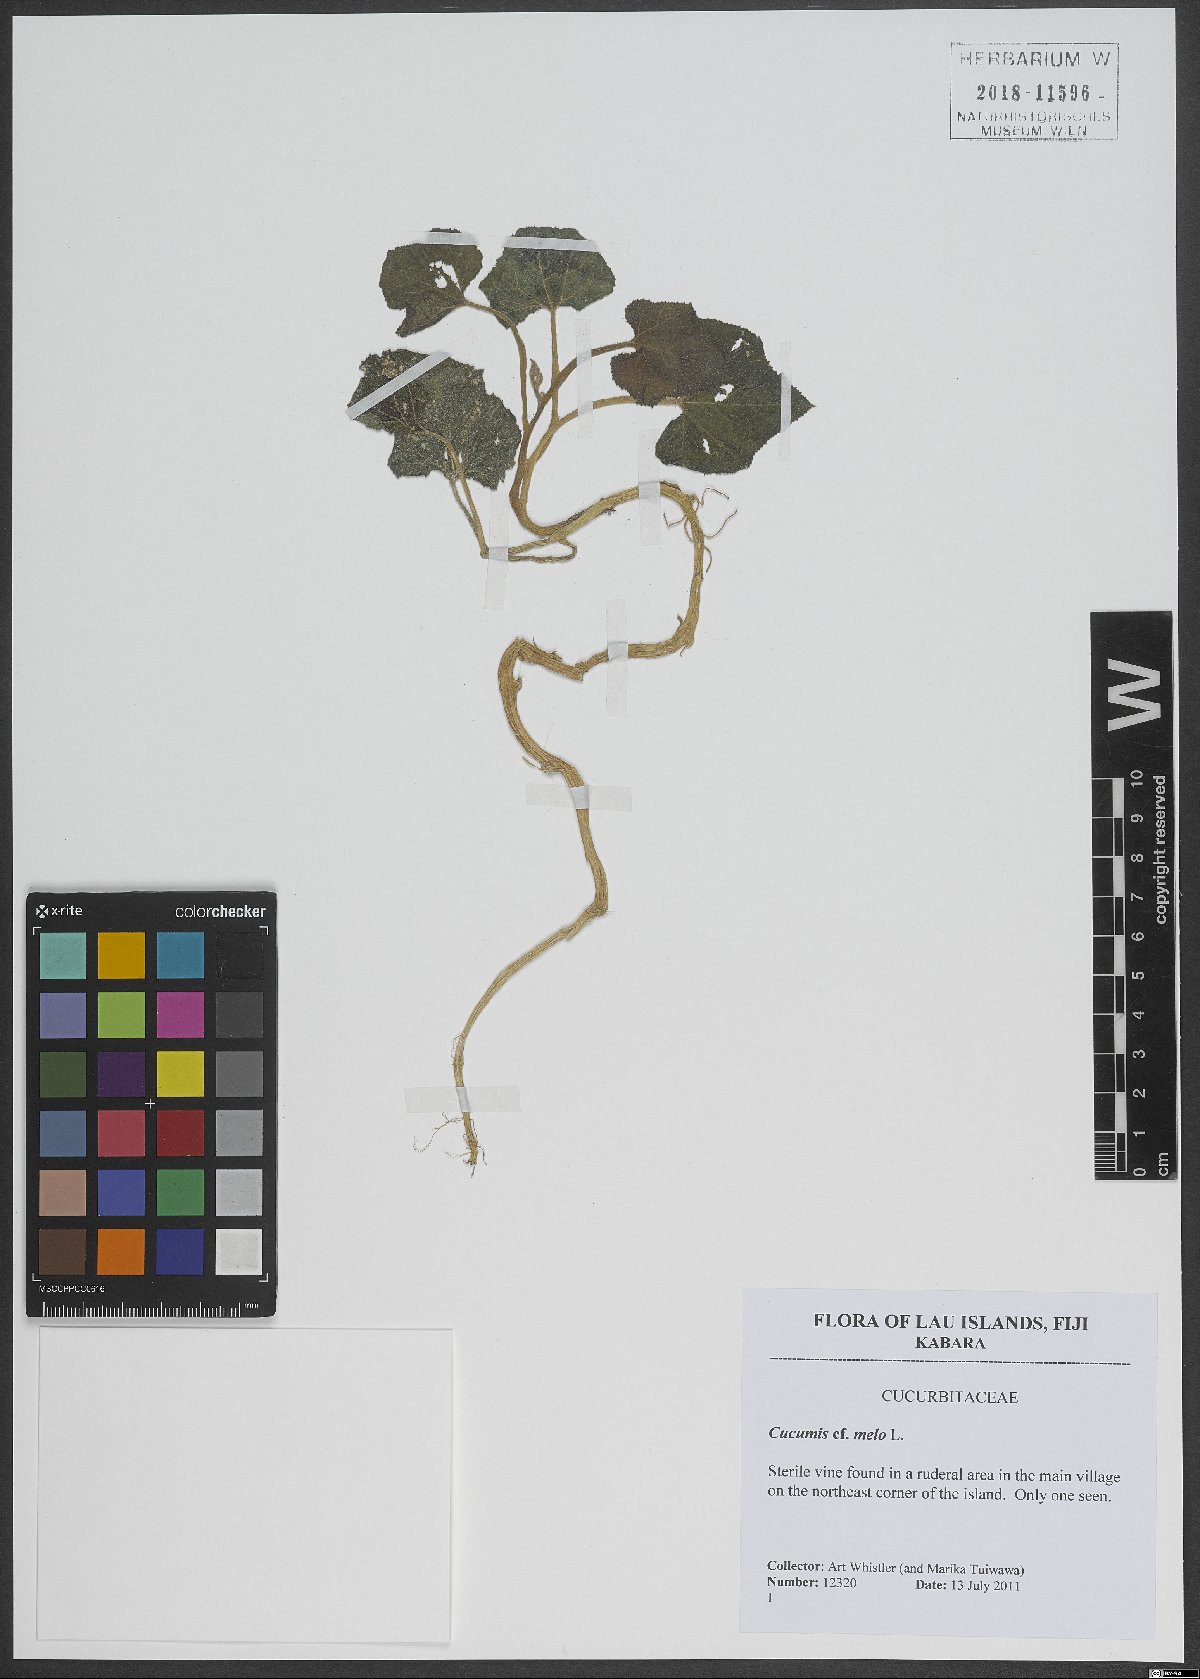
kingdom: Plantae
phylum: Tracheophyta
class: Magnoliopsida
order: Cucurbitales
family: Cucurbitaceae
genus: Cucumis
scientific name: Cucumis melo
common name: Melon
